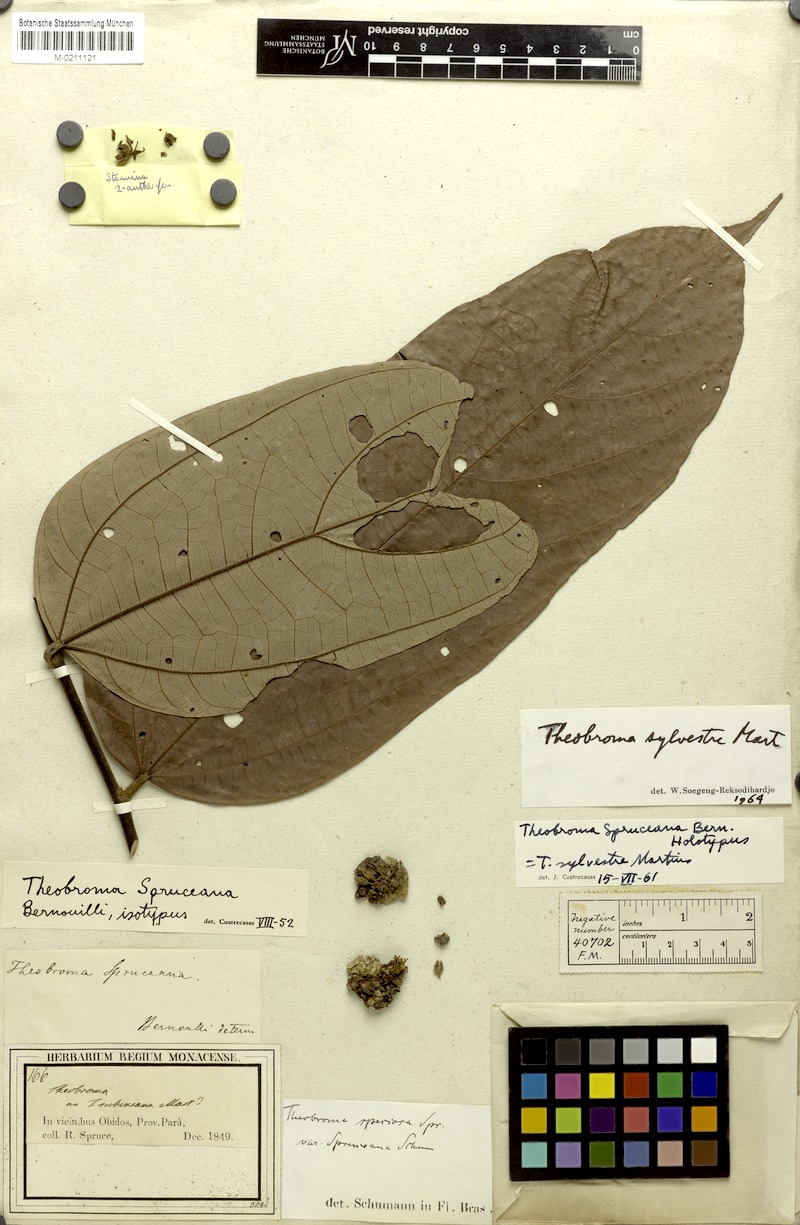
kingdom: Plantae
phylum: Tracheophyta
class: Magnoliopsida
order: Malvales
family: Malvaceae
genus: Theobroma
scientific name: Theobroma sylvestre
